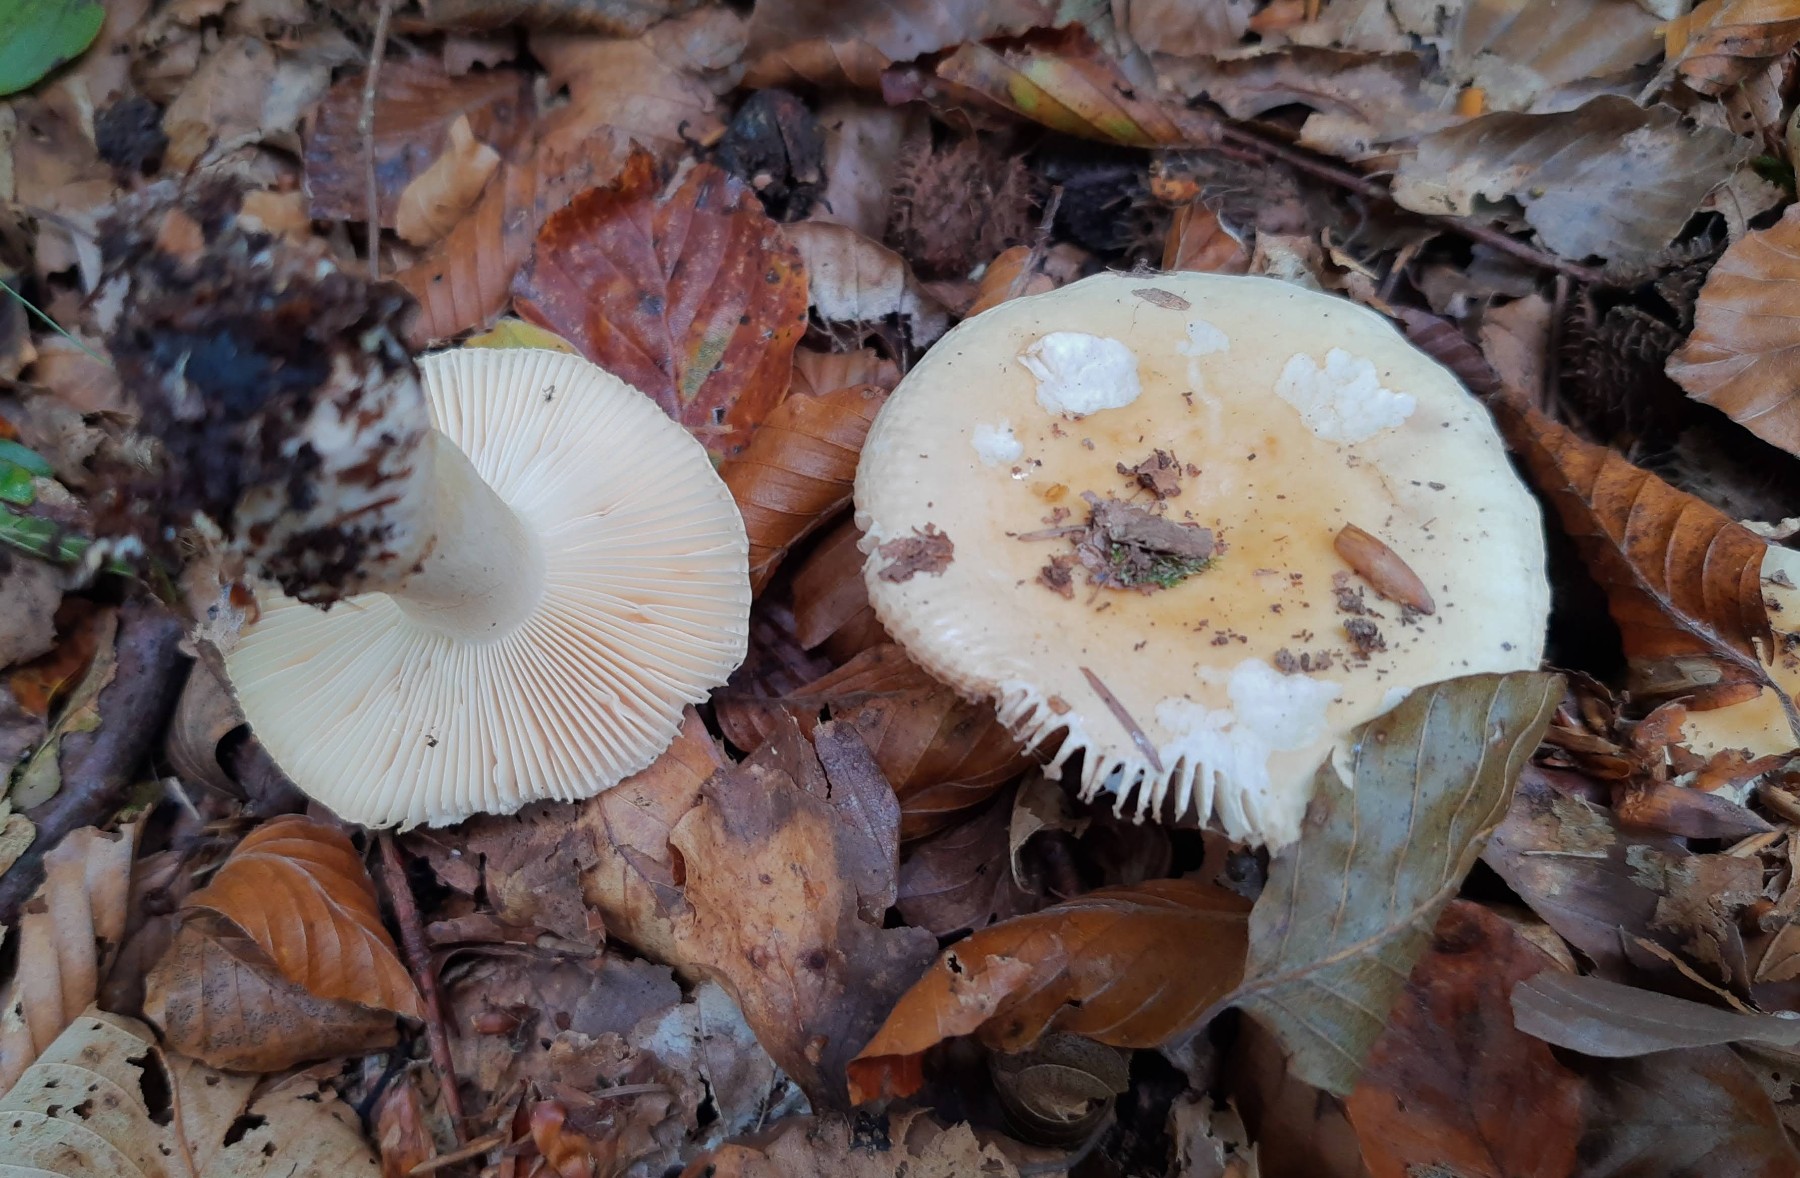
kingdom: Fungi
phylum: Basidiomycota
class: Agaricomycetes
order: Russulales
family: Russulaceae
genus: Russula
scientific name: Russula fellea
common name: galde-skørhat
